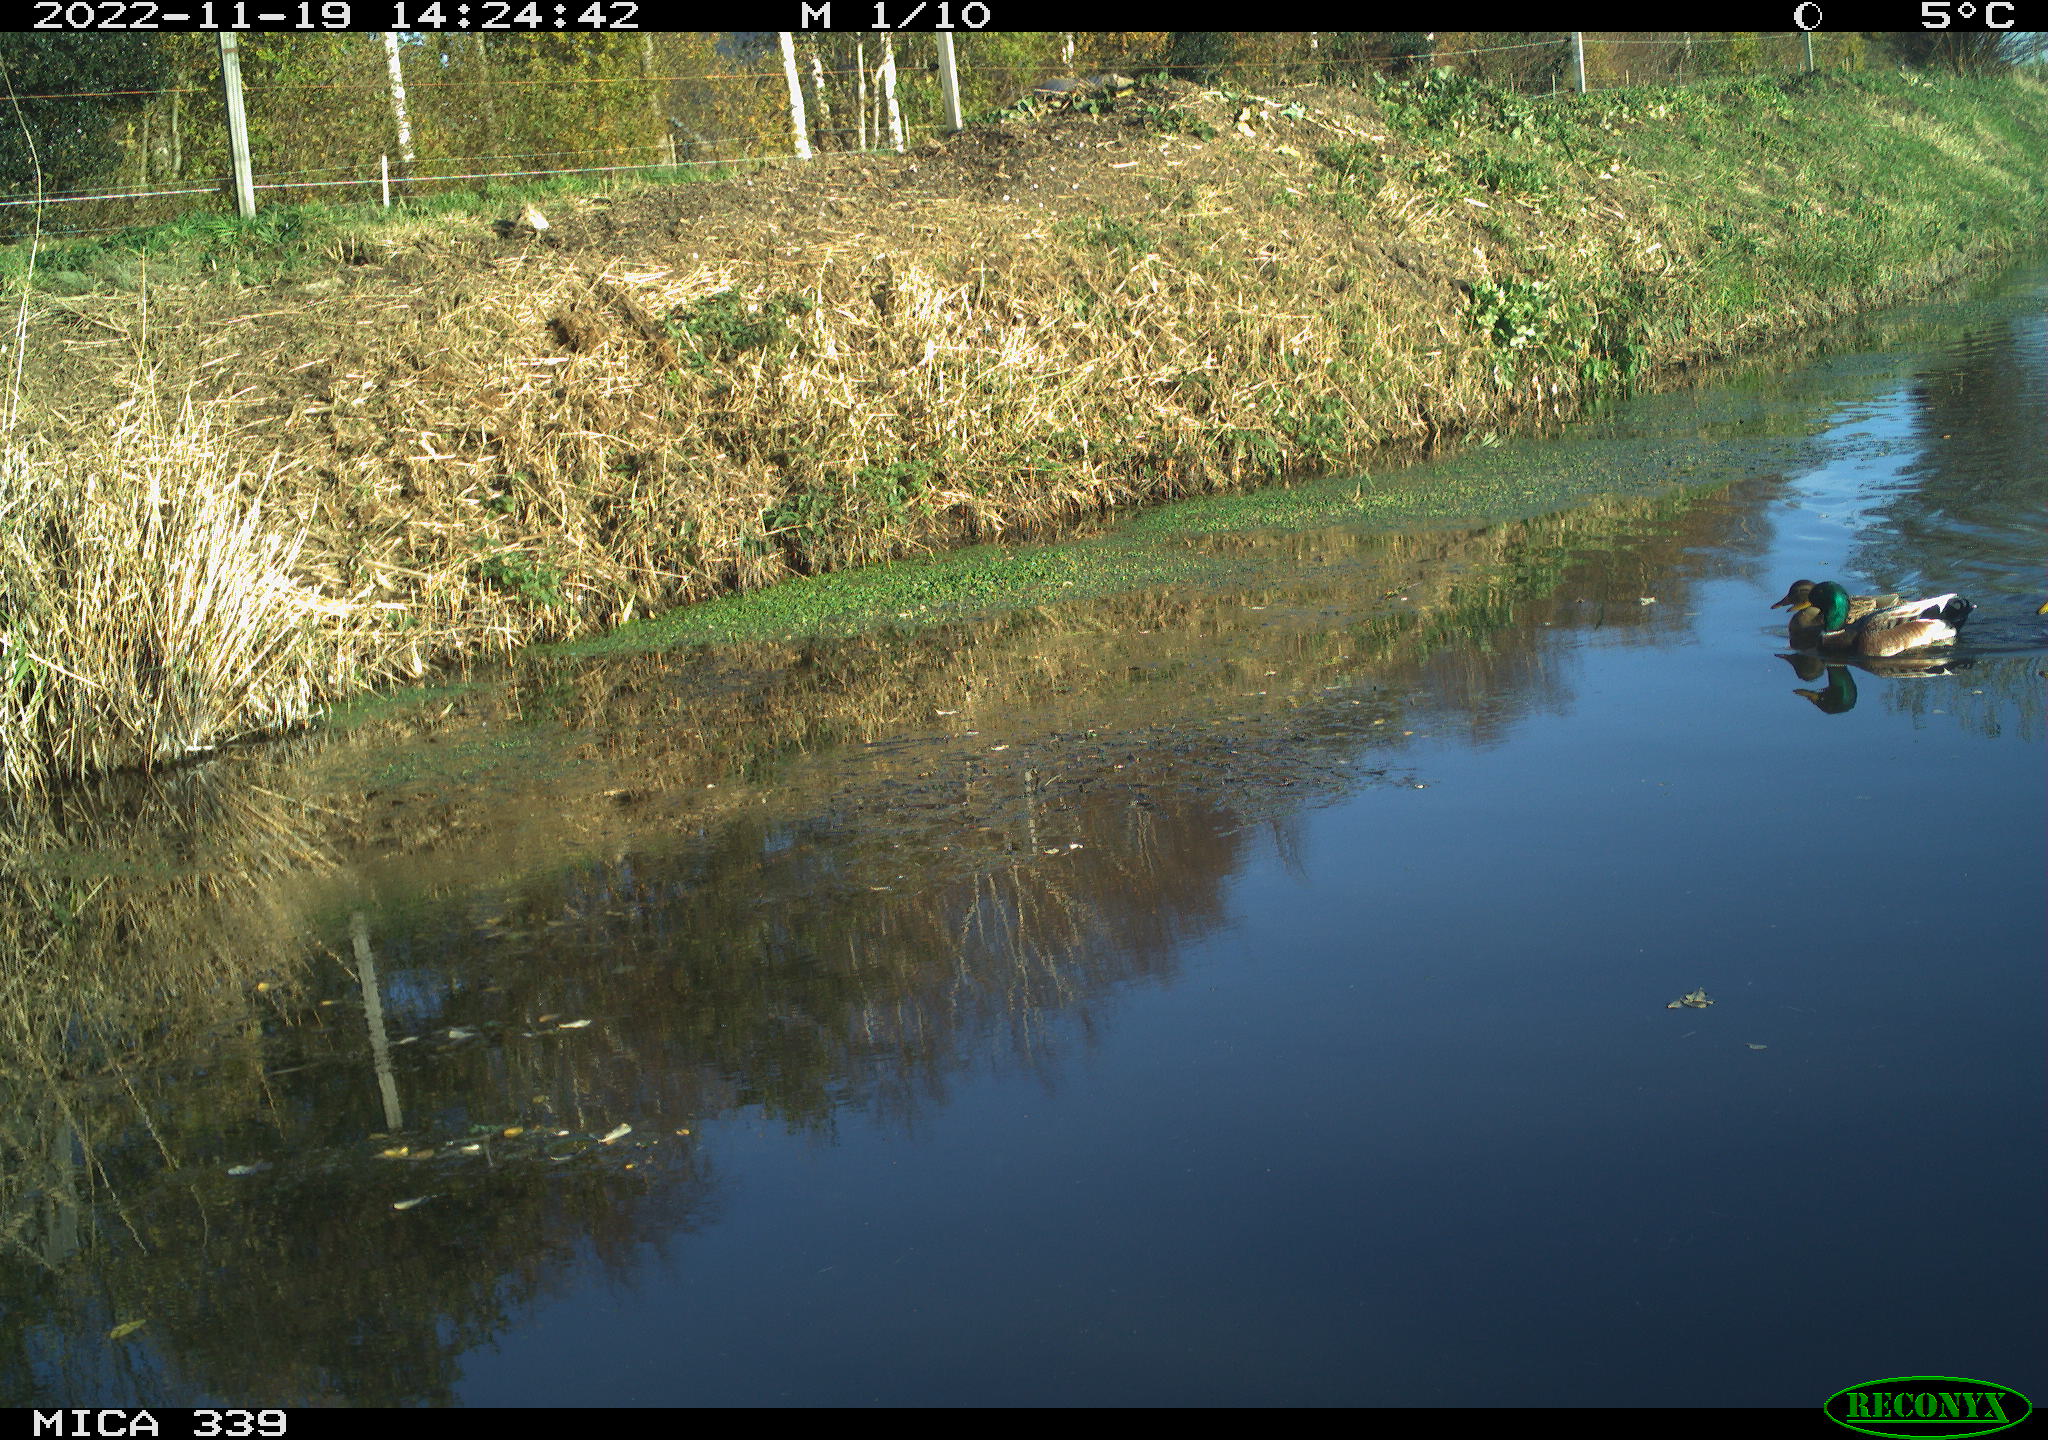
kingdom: Animalia
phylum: Chordata
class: Aves
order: Anseriformes
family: Anatidae
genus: Anas
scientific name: Anas platyrhynchos
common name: Mallard
